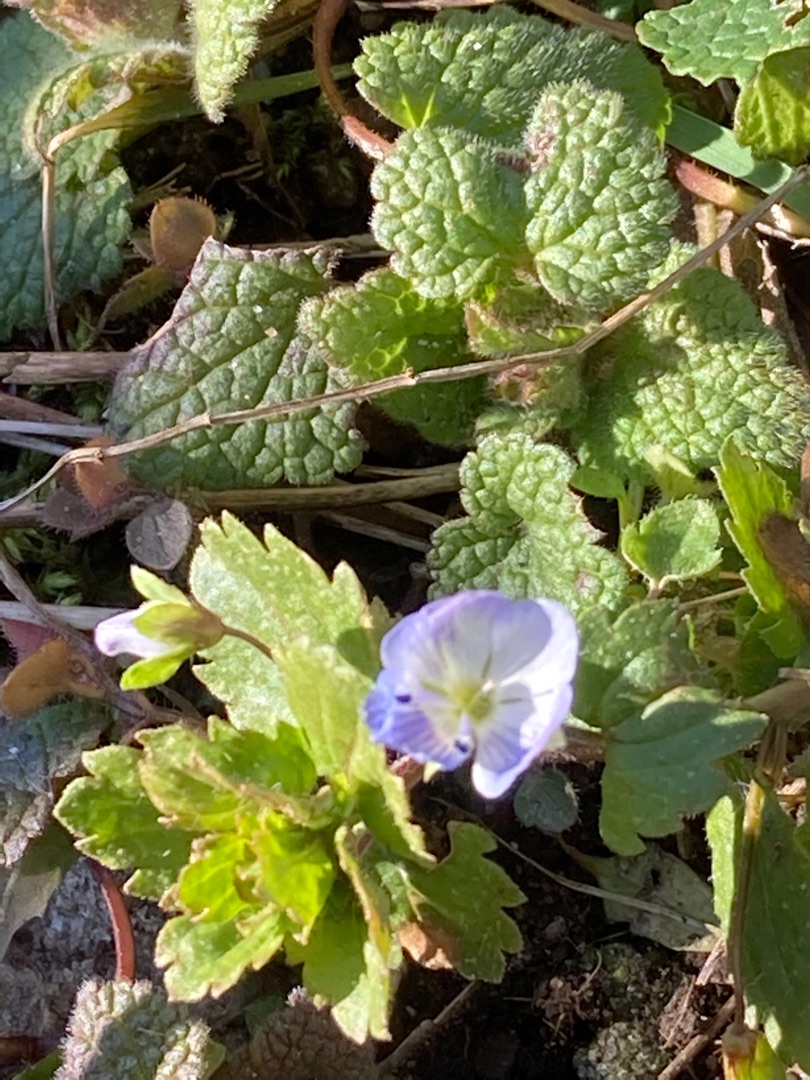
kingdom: Plantae
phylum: Tracheophyta
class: Magnoliopsida
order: Lamiales
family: Plantaginaceae
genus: Veronica
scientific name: Veronica persica
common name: Storkronet ærenpris
